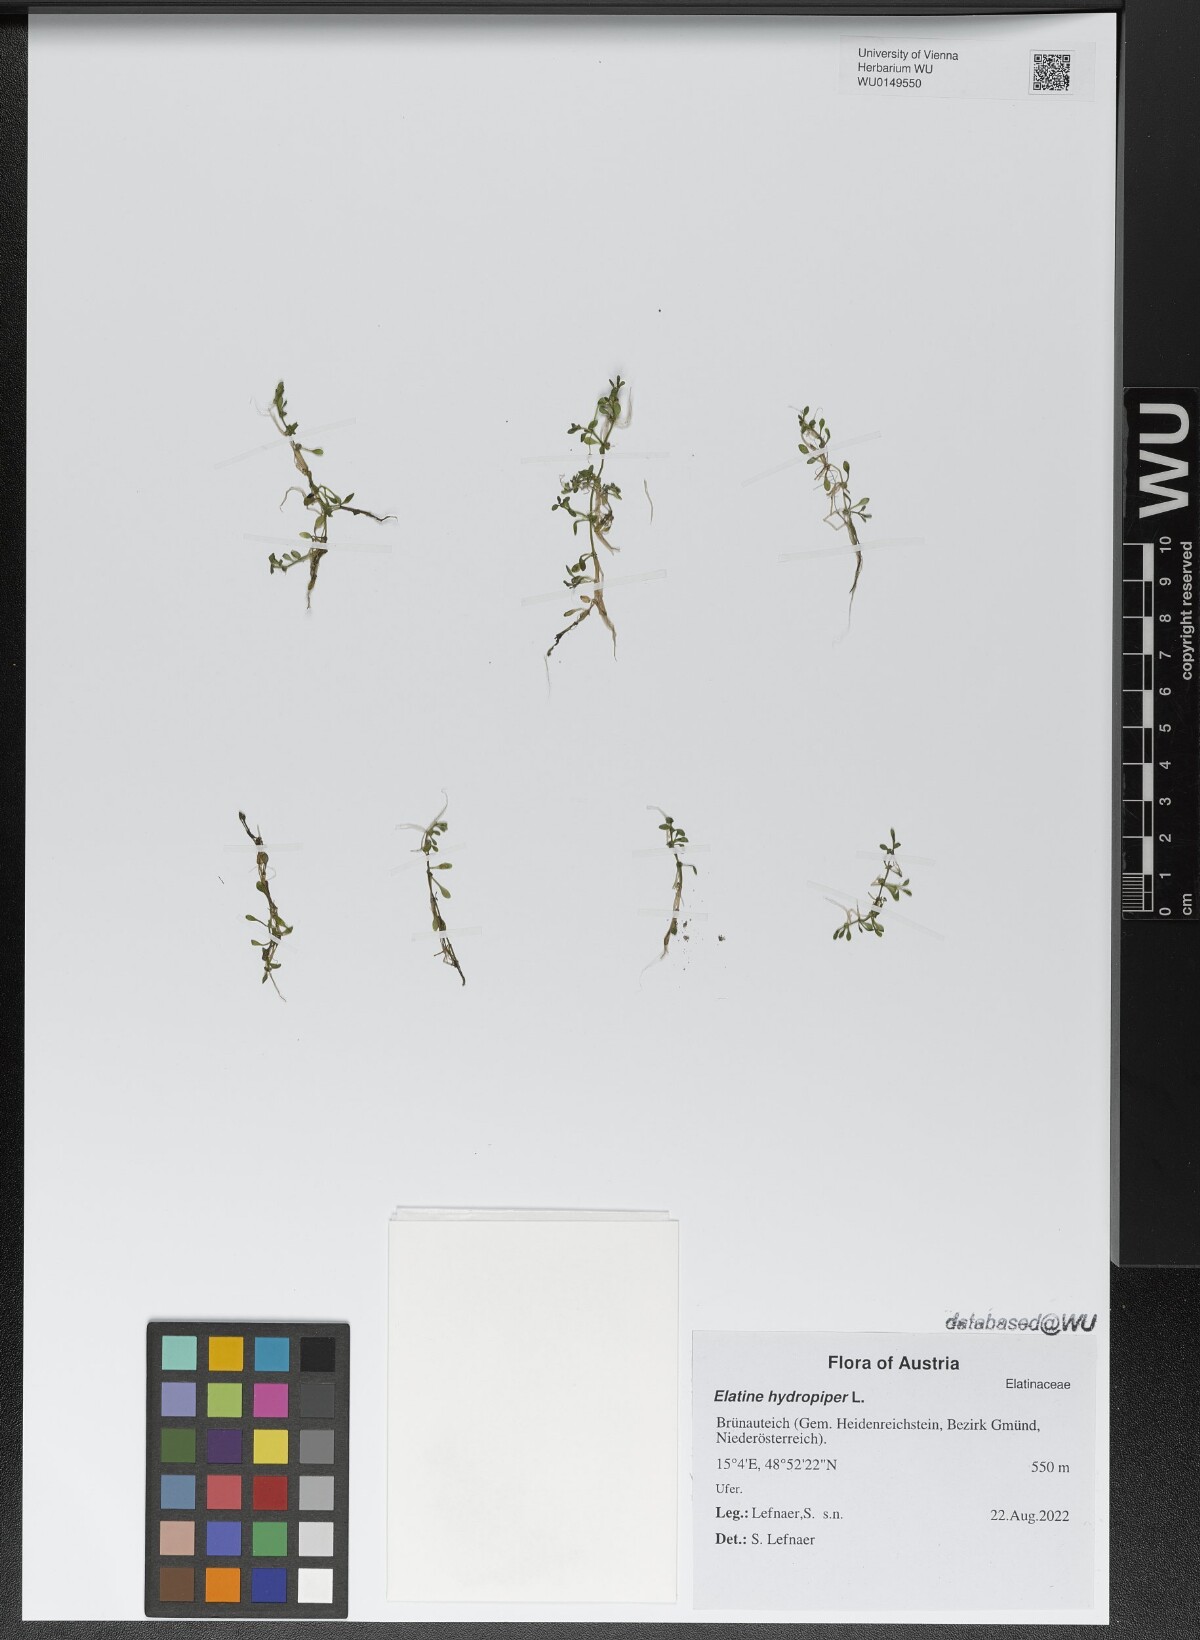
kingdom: Plantae
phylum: Tracheophyta
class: Magnoliopsida
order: Malpighiales
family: Elatinaceae
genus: Elatine
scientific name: Elatine hydropiper
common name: Eight-stamened waterwort
